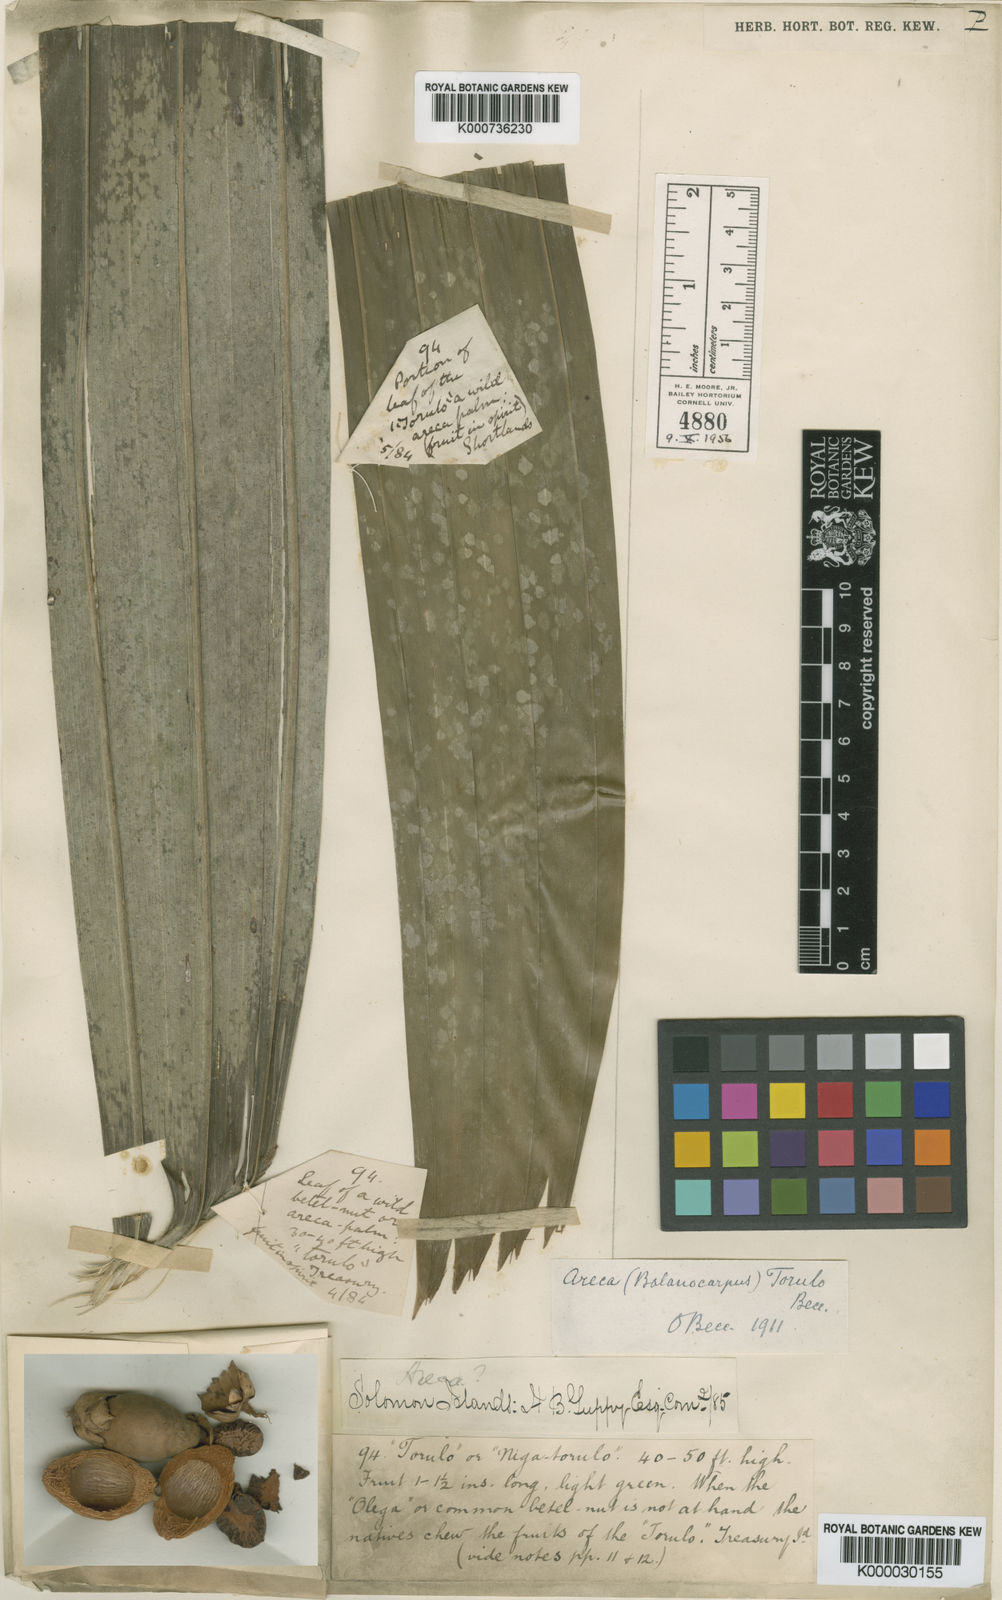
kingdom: Plantae
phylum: Tracheophyta
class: Liliopsida
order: Arecales
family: Arecaceae
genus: Areca
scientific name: Areca macrocalyx
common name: Highland betel-nut palm
